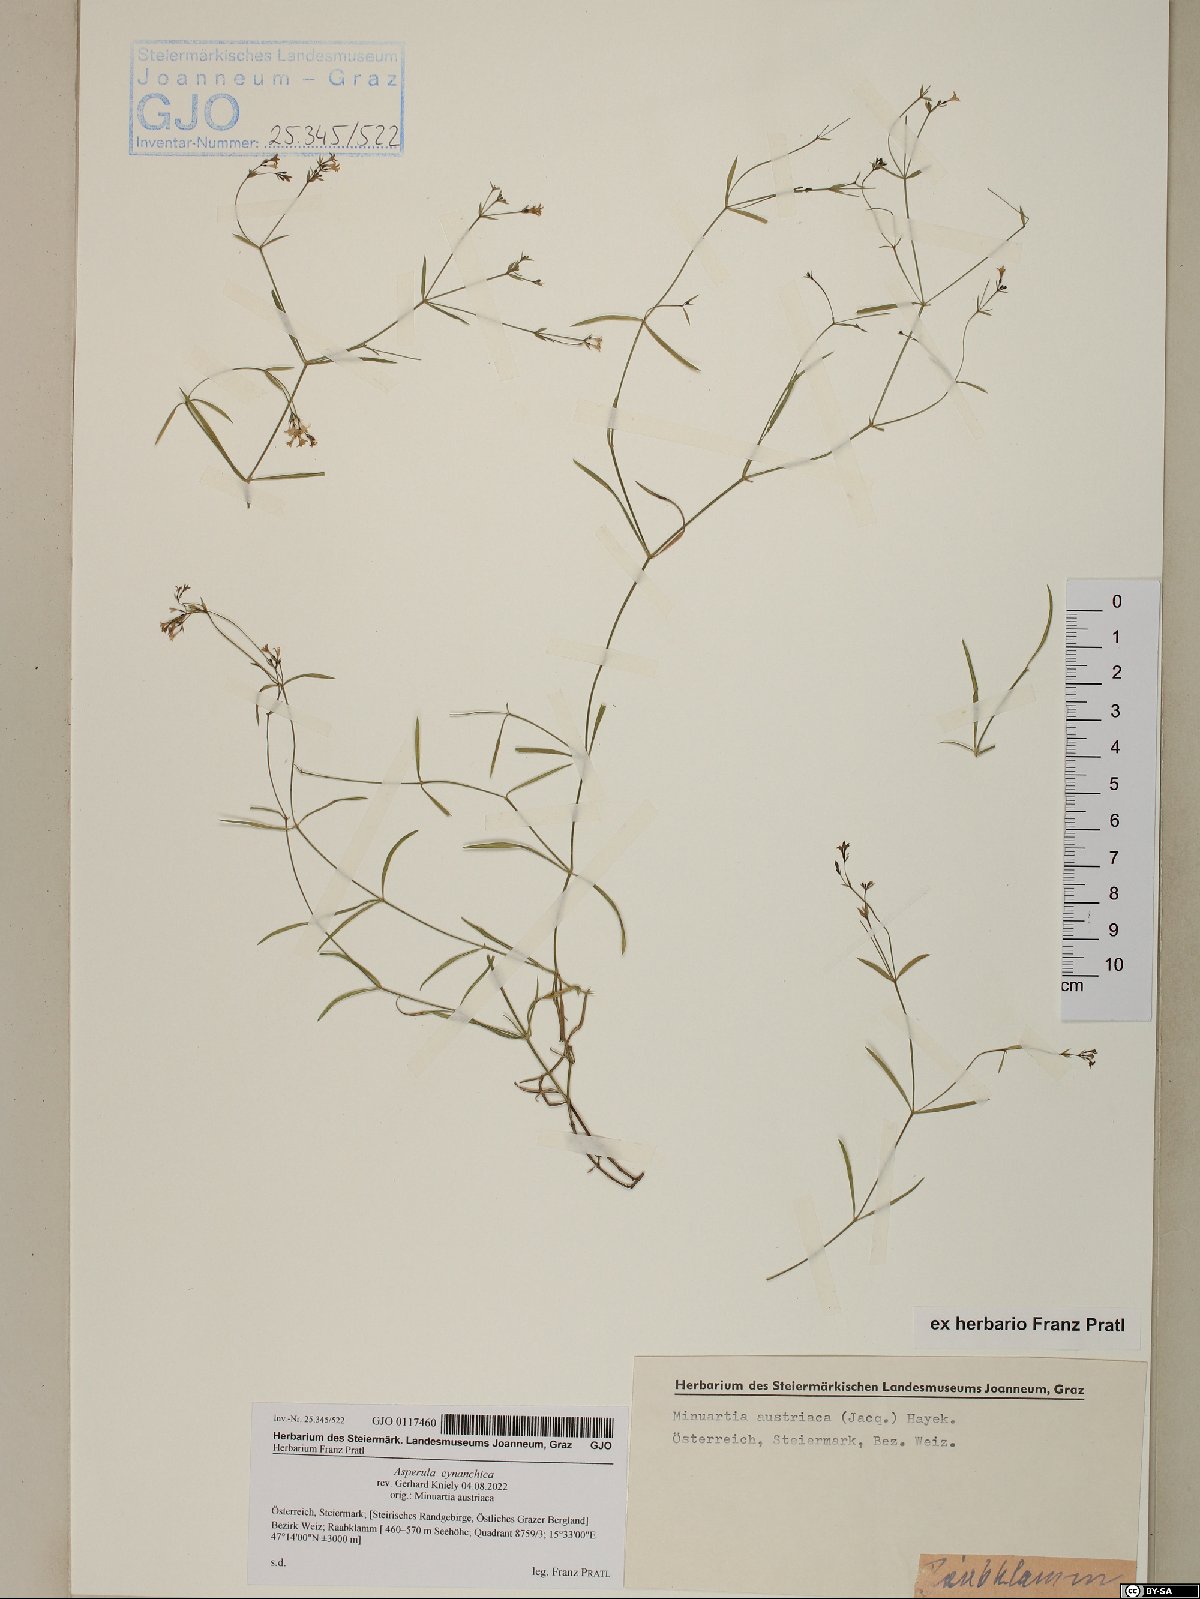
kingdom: Plantae
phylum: Tracheophyta
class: Magnoliopsida
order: Gentianales
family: Rubiaceae
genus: Cynanchica
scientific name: Cynanchica pyrenaica
